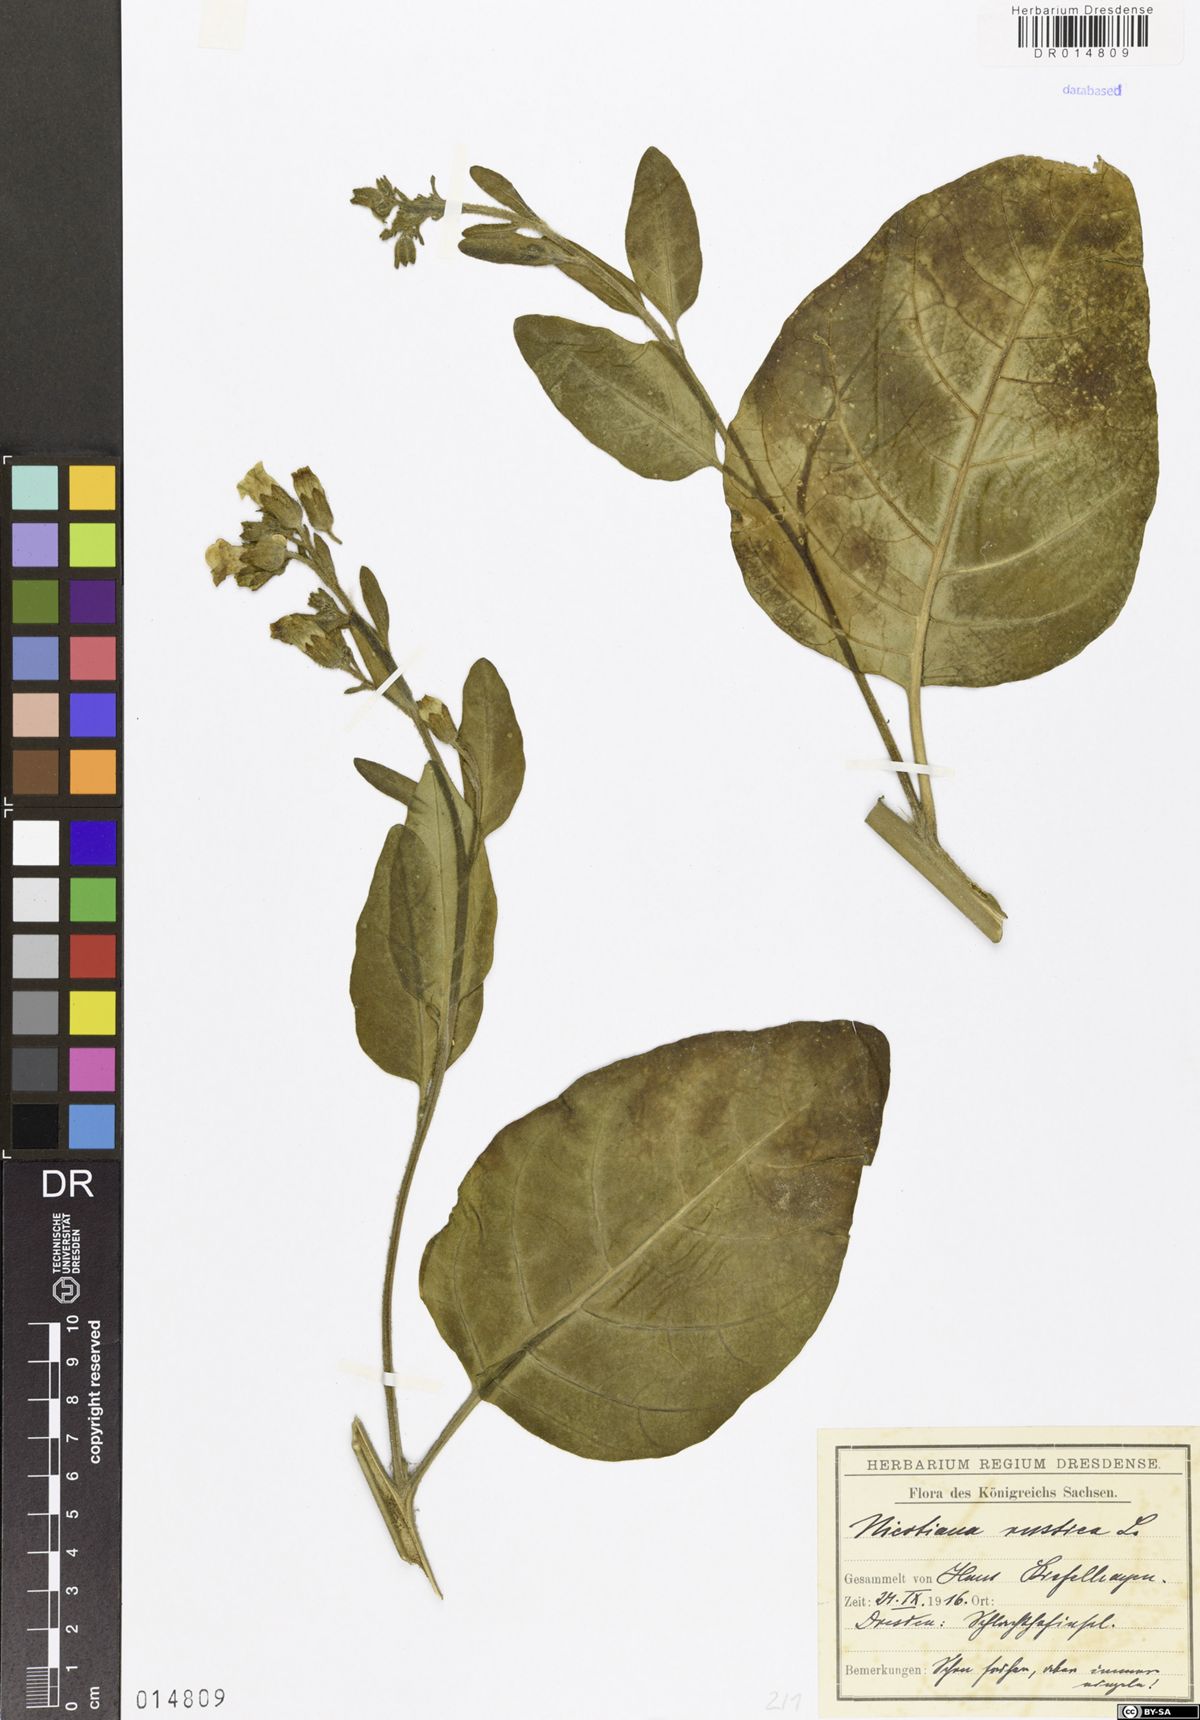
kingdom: Plantae
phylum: Tracheophyta
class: Magnoliopsida
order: Solanales
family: Solanaceae
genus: Nicotiana
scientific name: Nicotiana rustica
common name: Wild tobacco
